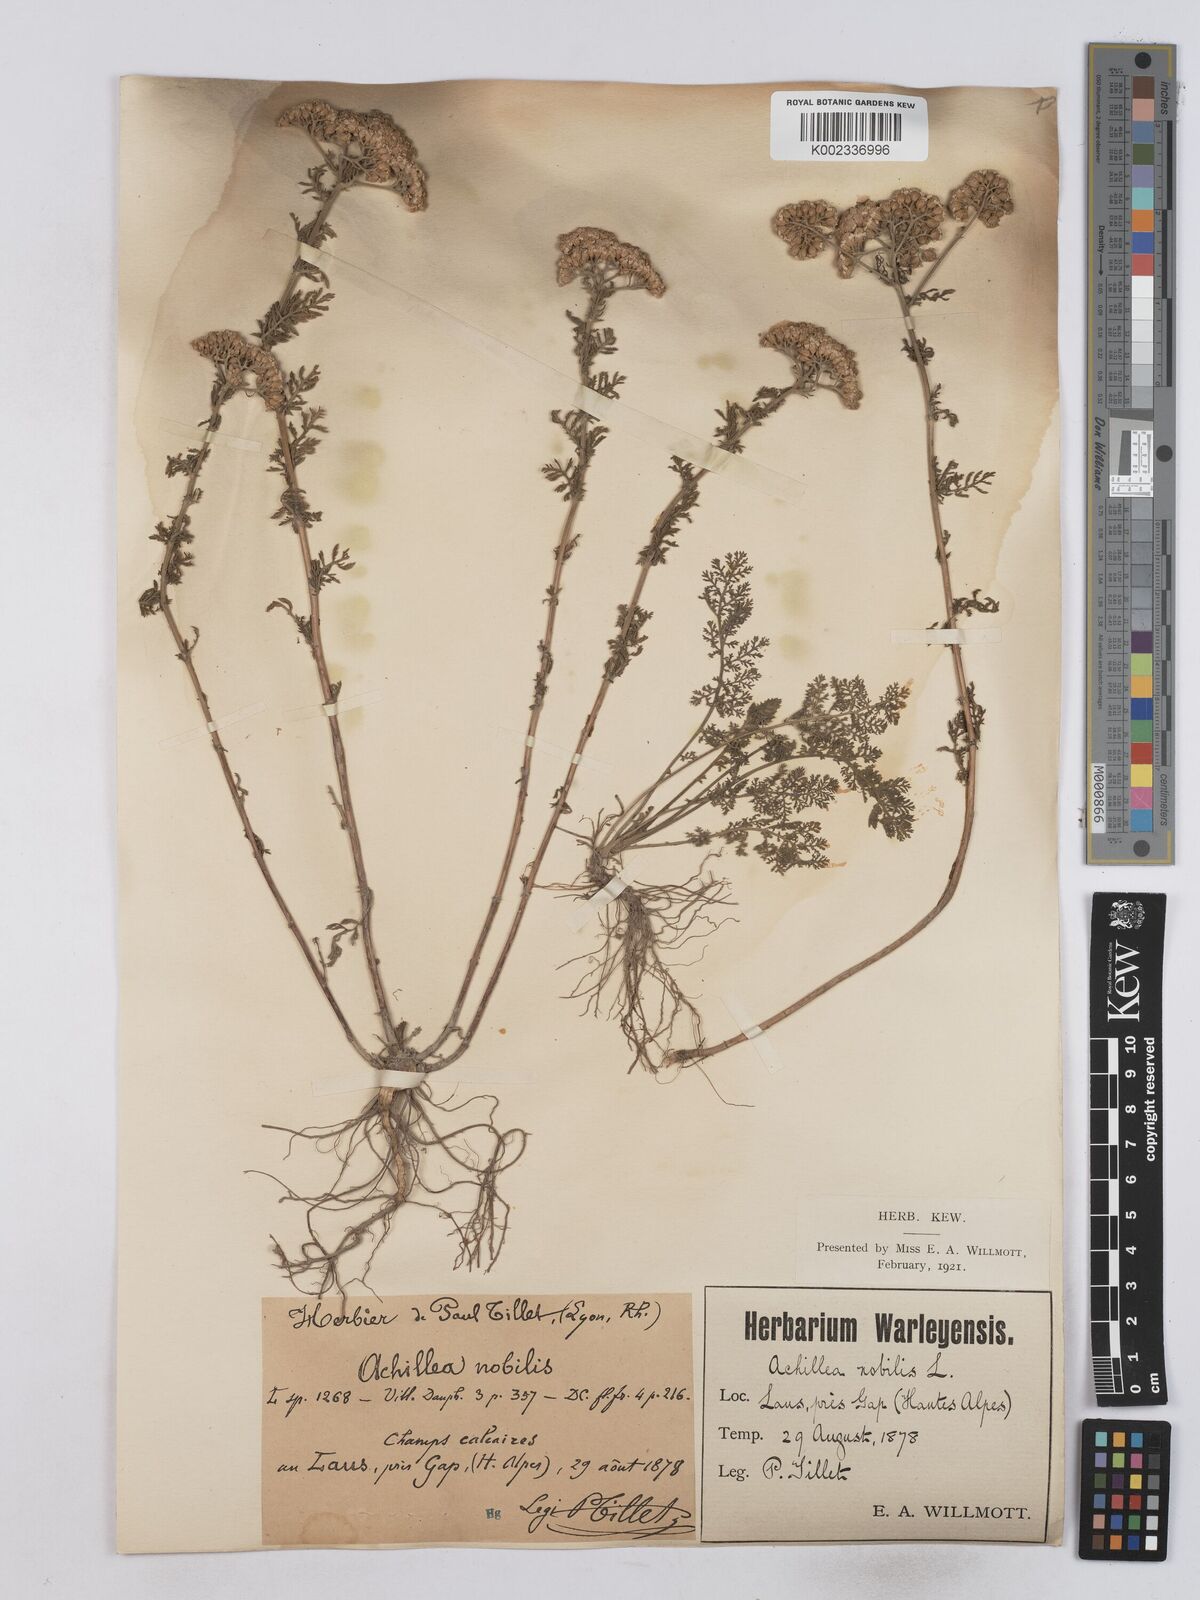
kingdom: Plantae
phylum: Tracheophyta
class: Magnoliopsida
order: Asterales
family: Asteraceae
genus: Achillea
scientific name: Achillea nobilis
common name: Noble yarrow
